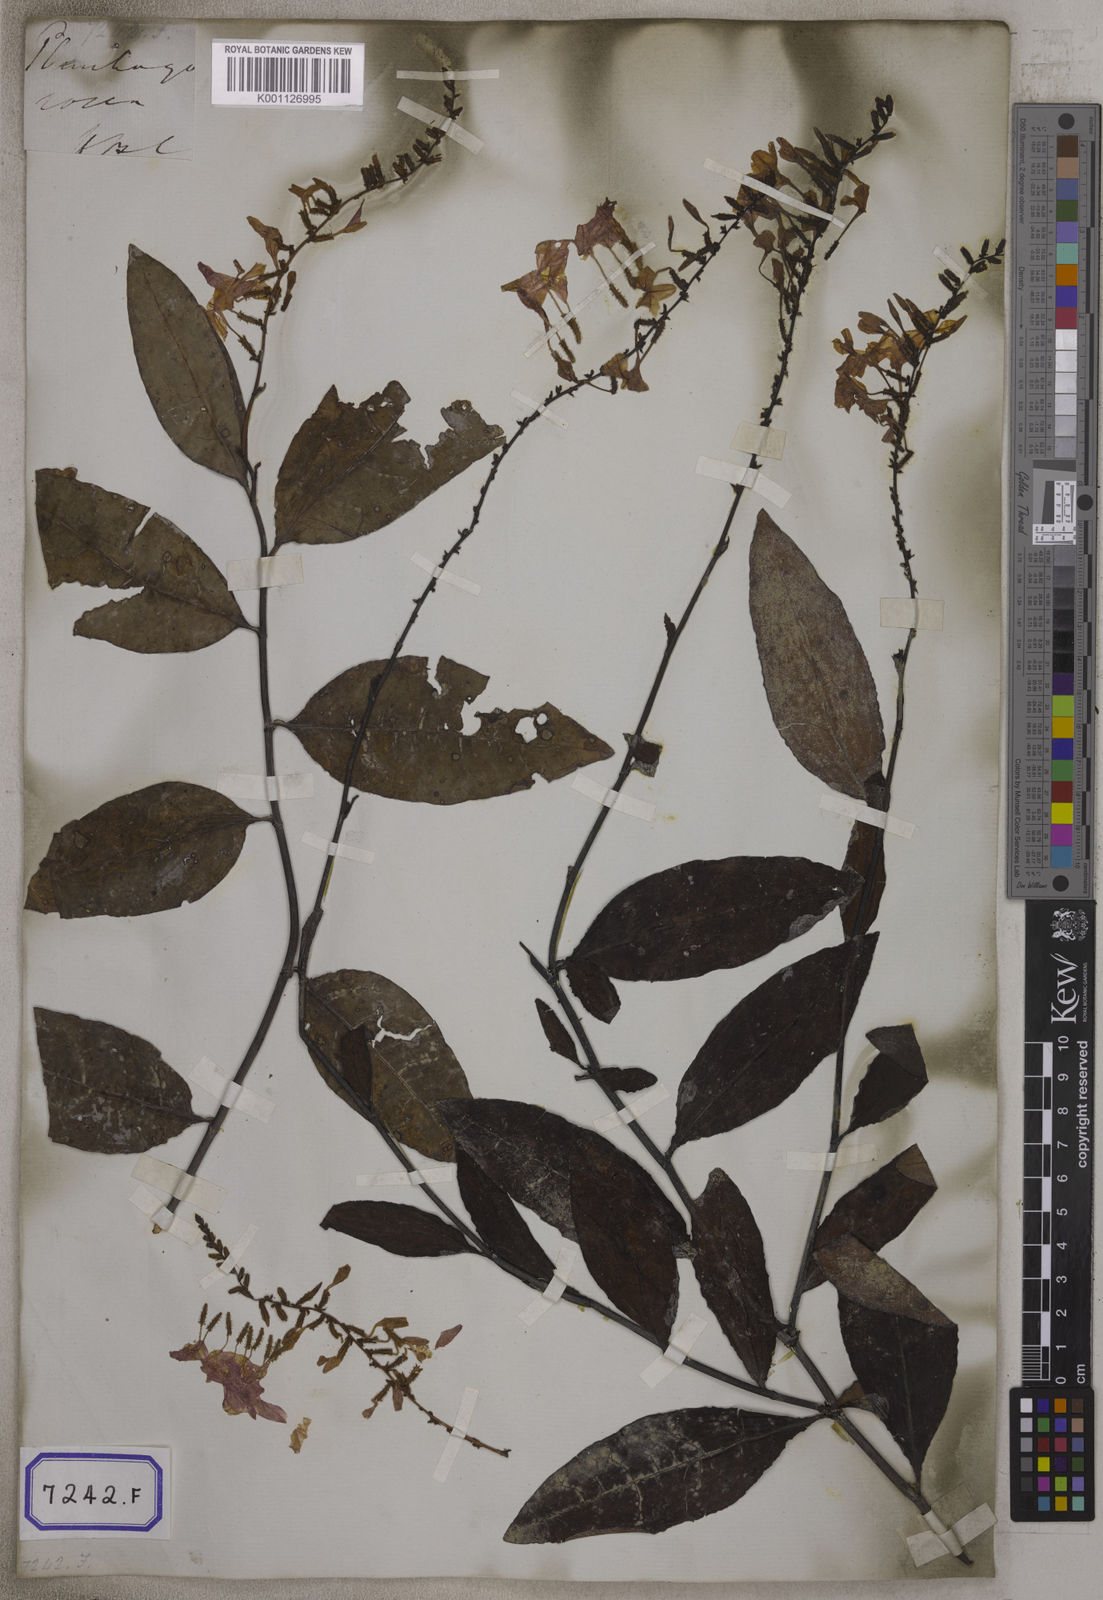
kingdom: Plantae
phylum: Tracheophyta
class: Magnoliopsida
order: Caryophyllales
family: Plumbaginaceae
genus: Plumbago
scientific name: Plumbago indica
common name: Indian leadwort
